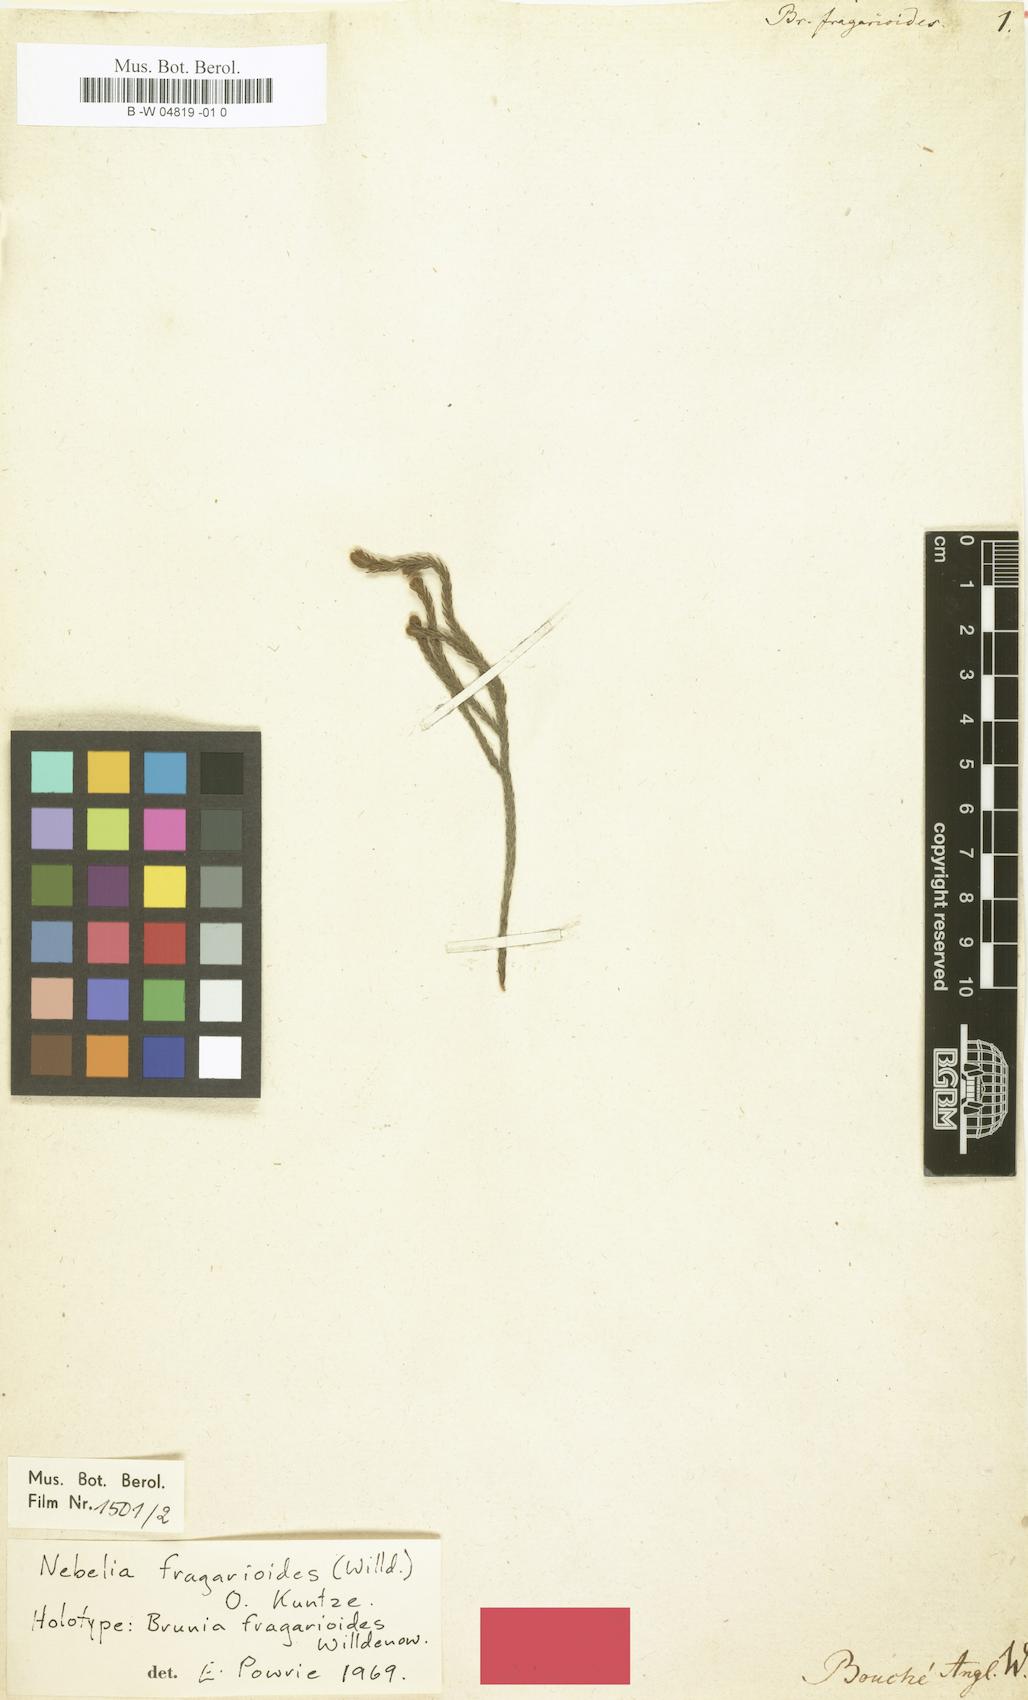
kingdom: Plantae
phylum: Tracheophyta
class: Magnoliopsida
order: Bruniales
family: Bruniaceae
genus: Brunia
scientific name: Brunia fragarioides
